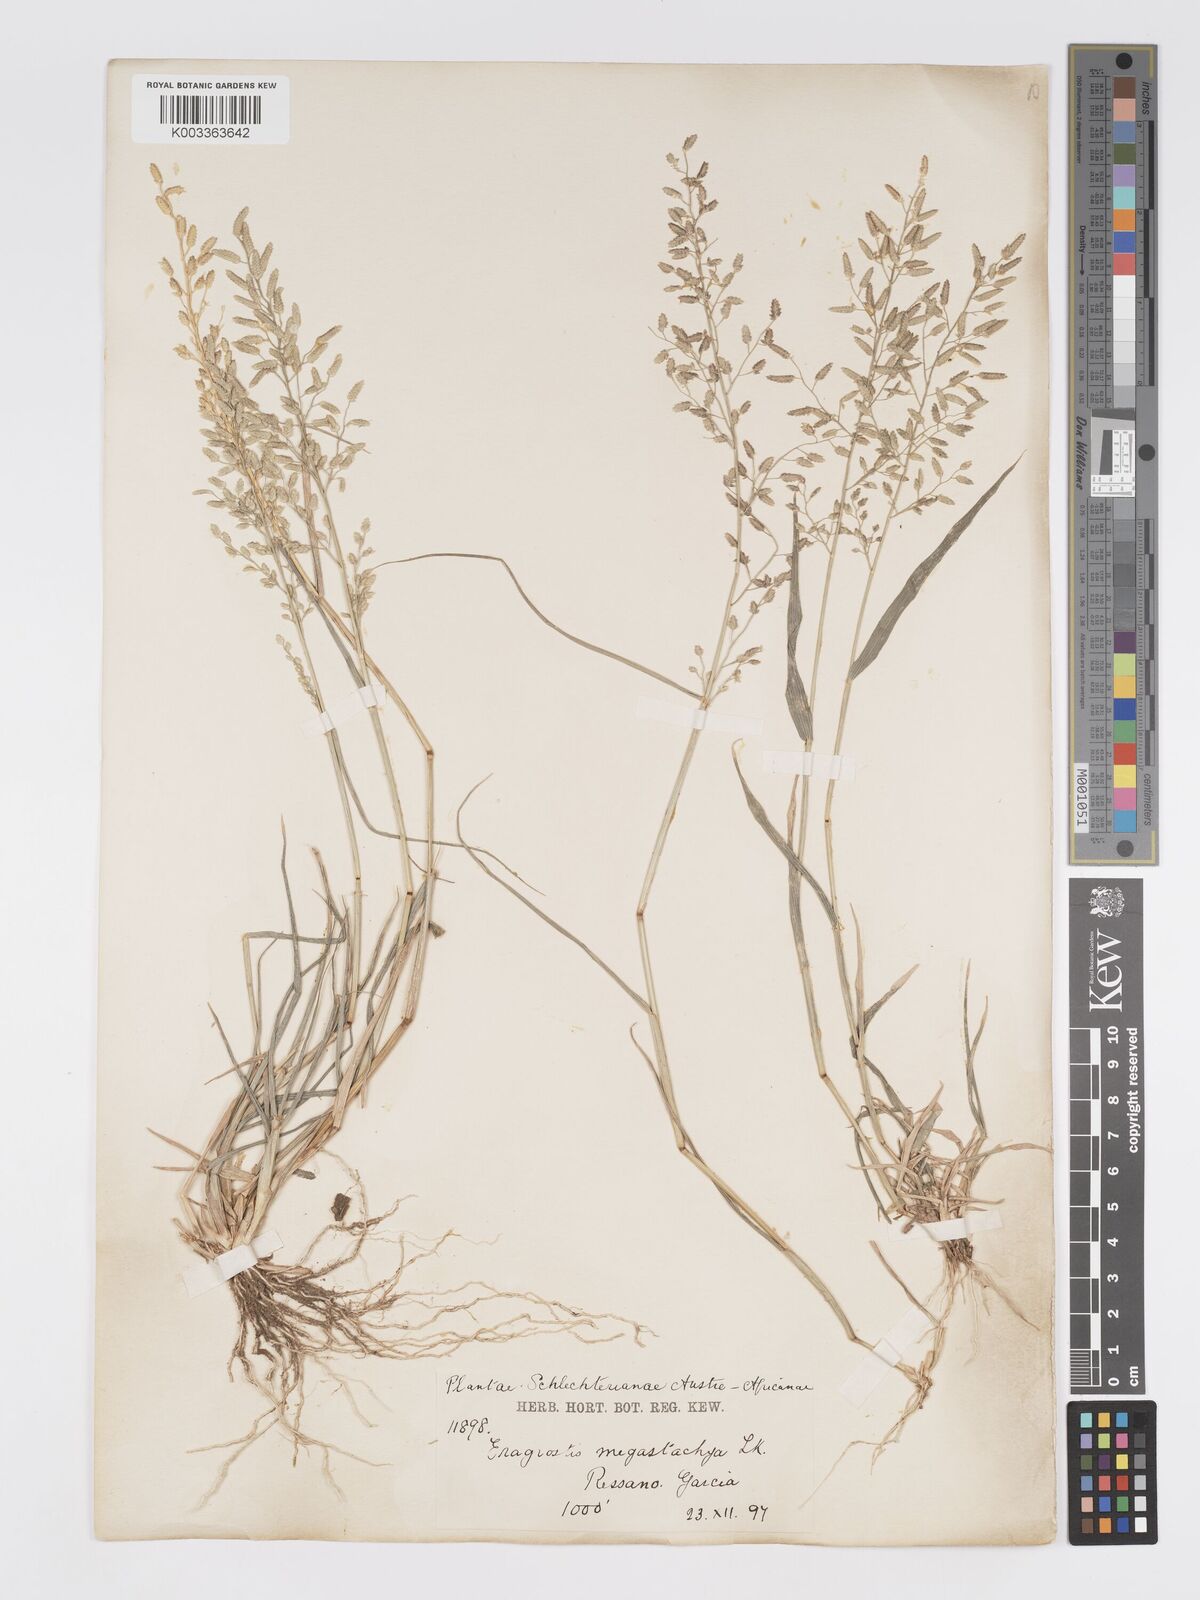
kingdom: Plantae
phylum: Tracheophyta
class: Liliopsida
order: Poales
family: Poaceae
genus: Eragrostis
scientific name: Eragrostis cilianensis
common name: Stinkgrass
